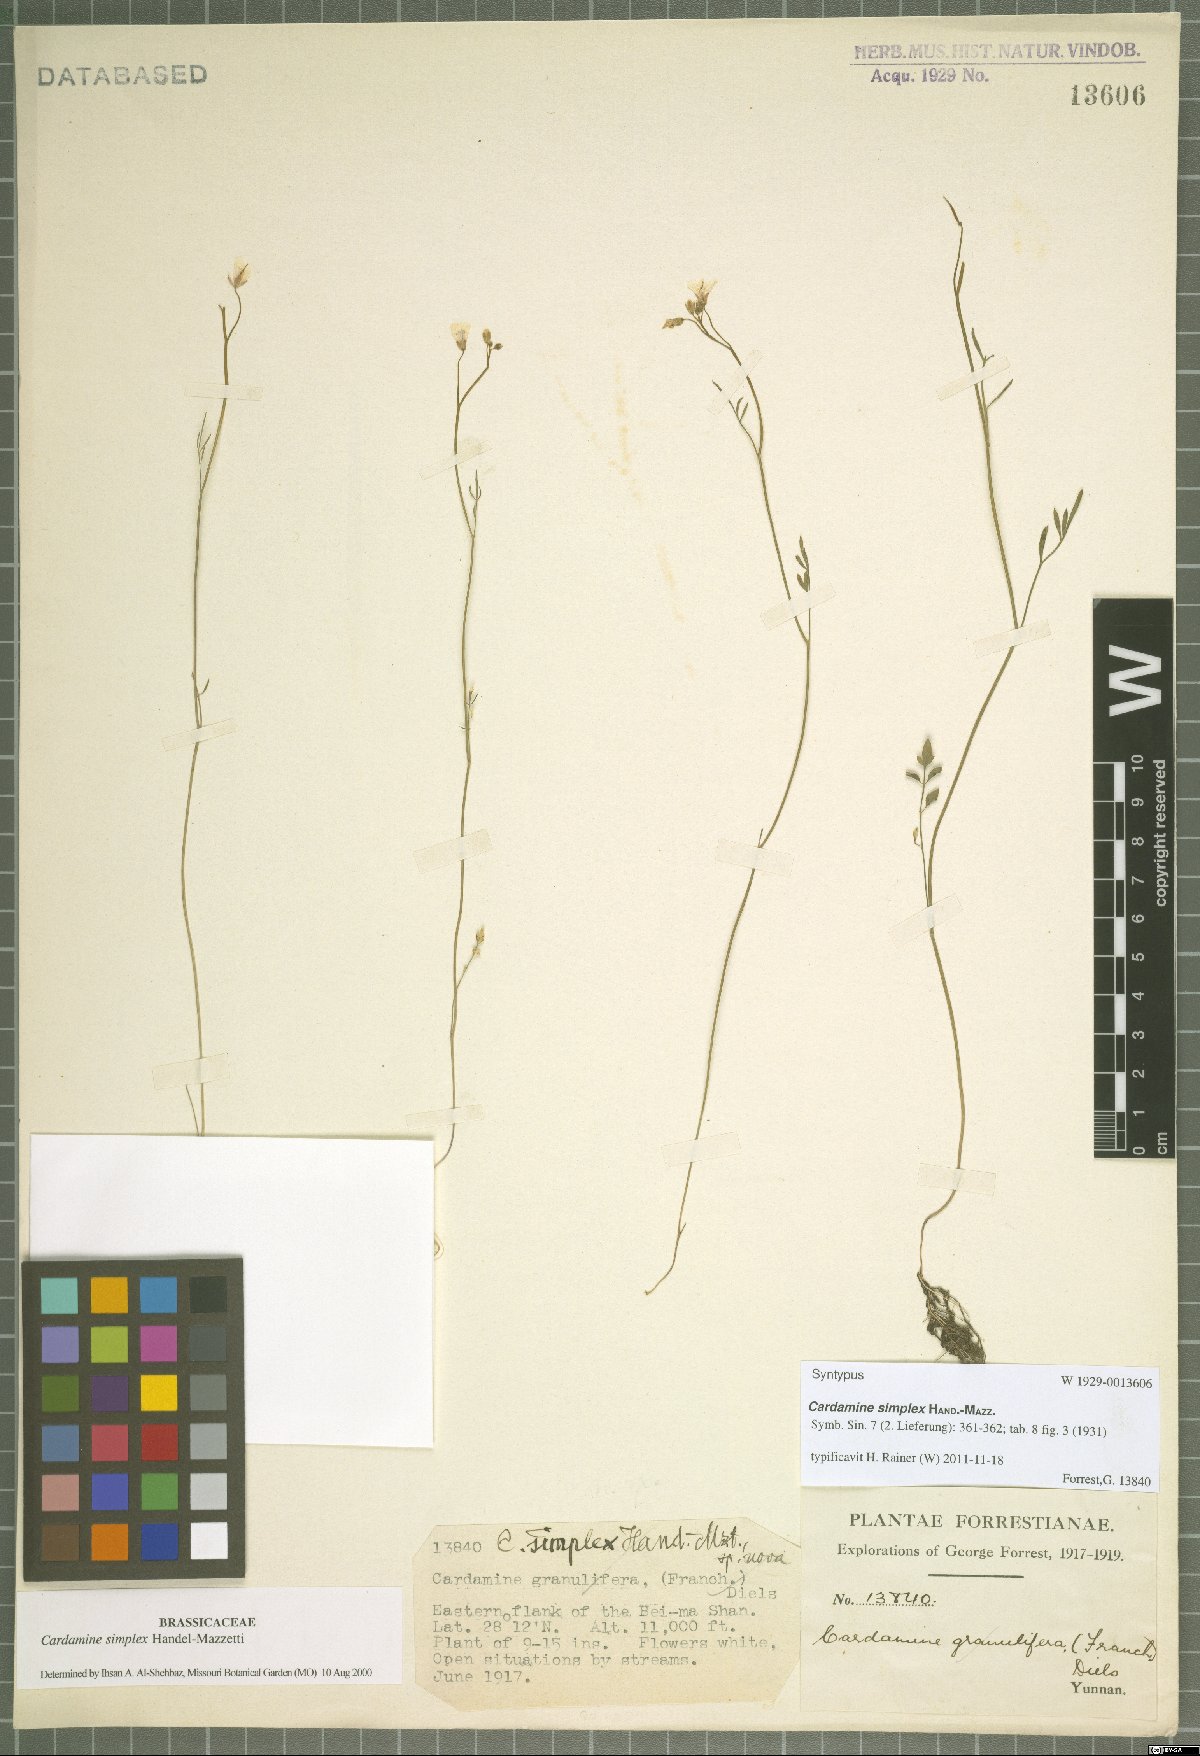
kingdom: Plantae
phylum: Tracheophyta
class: Magnoliopsida
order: Brassicales
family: Brassicaceae
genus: Cardamine
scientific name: Cardamine simplex
